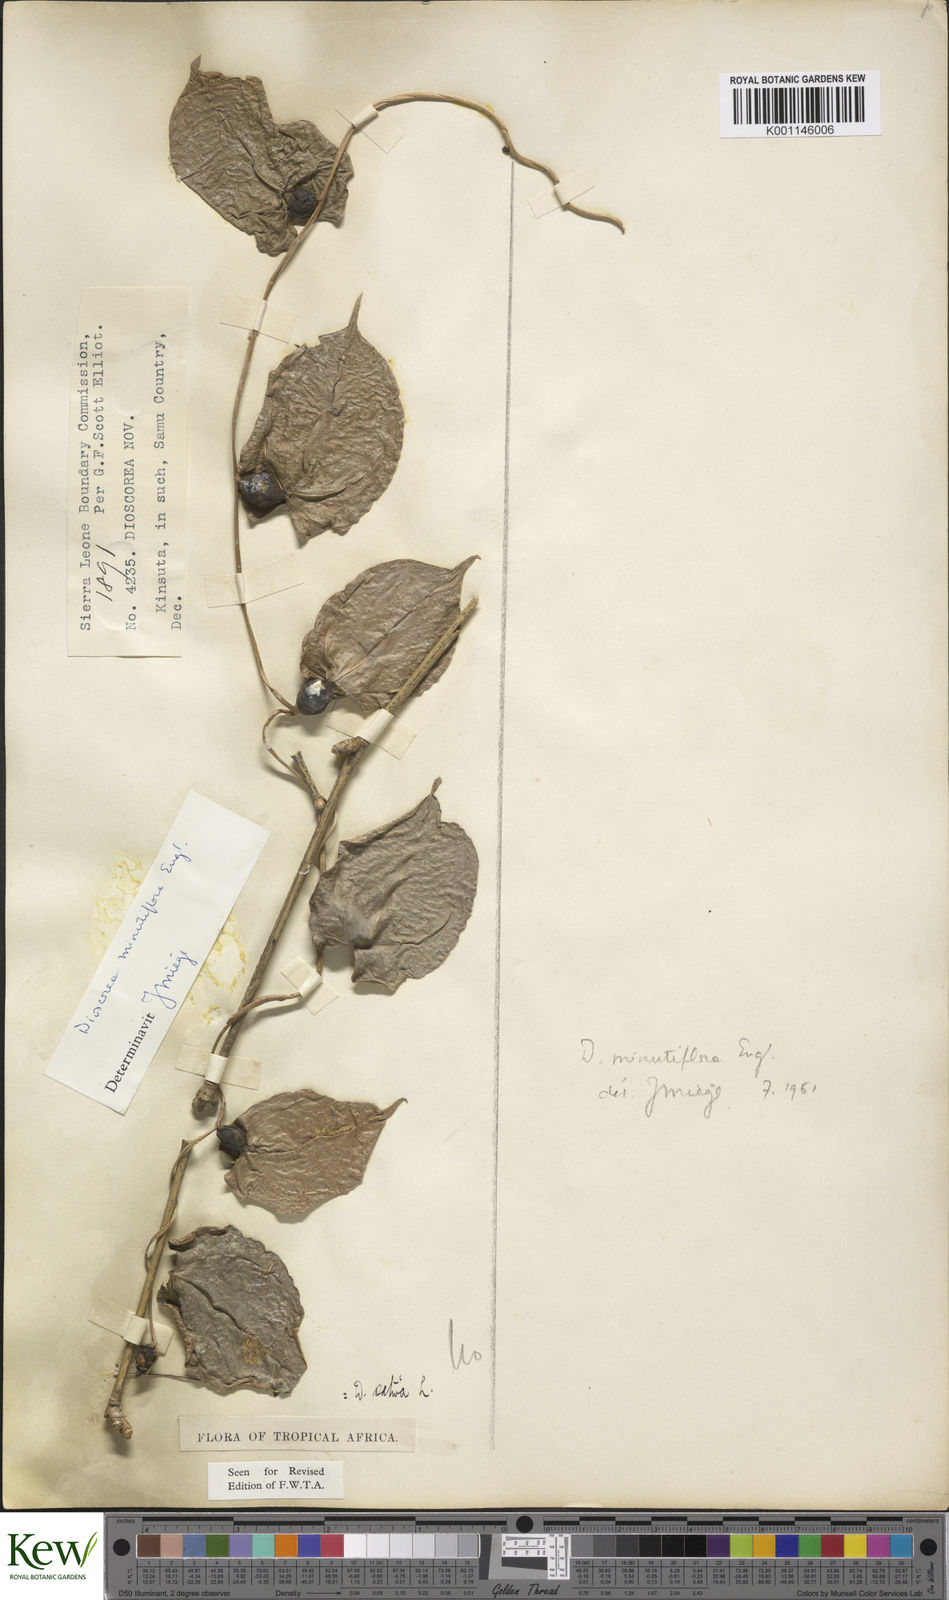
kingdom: Plantae
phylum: Tracheophyta
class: Liliopsida
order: Dioscoreales
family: Dioscoreaceae
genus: Dioscorea
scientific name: Dioscorea minutiflora
